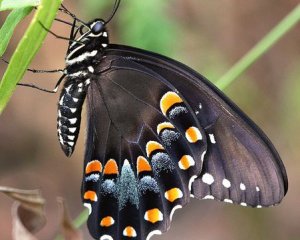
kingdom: Animalia
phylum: Arthropoda
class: Insecta
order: Lepidoptera
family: Papilionidae
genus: Pterourus
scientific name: Pterourus troilus
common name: Spicebush Swallowtail
